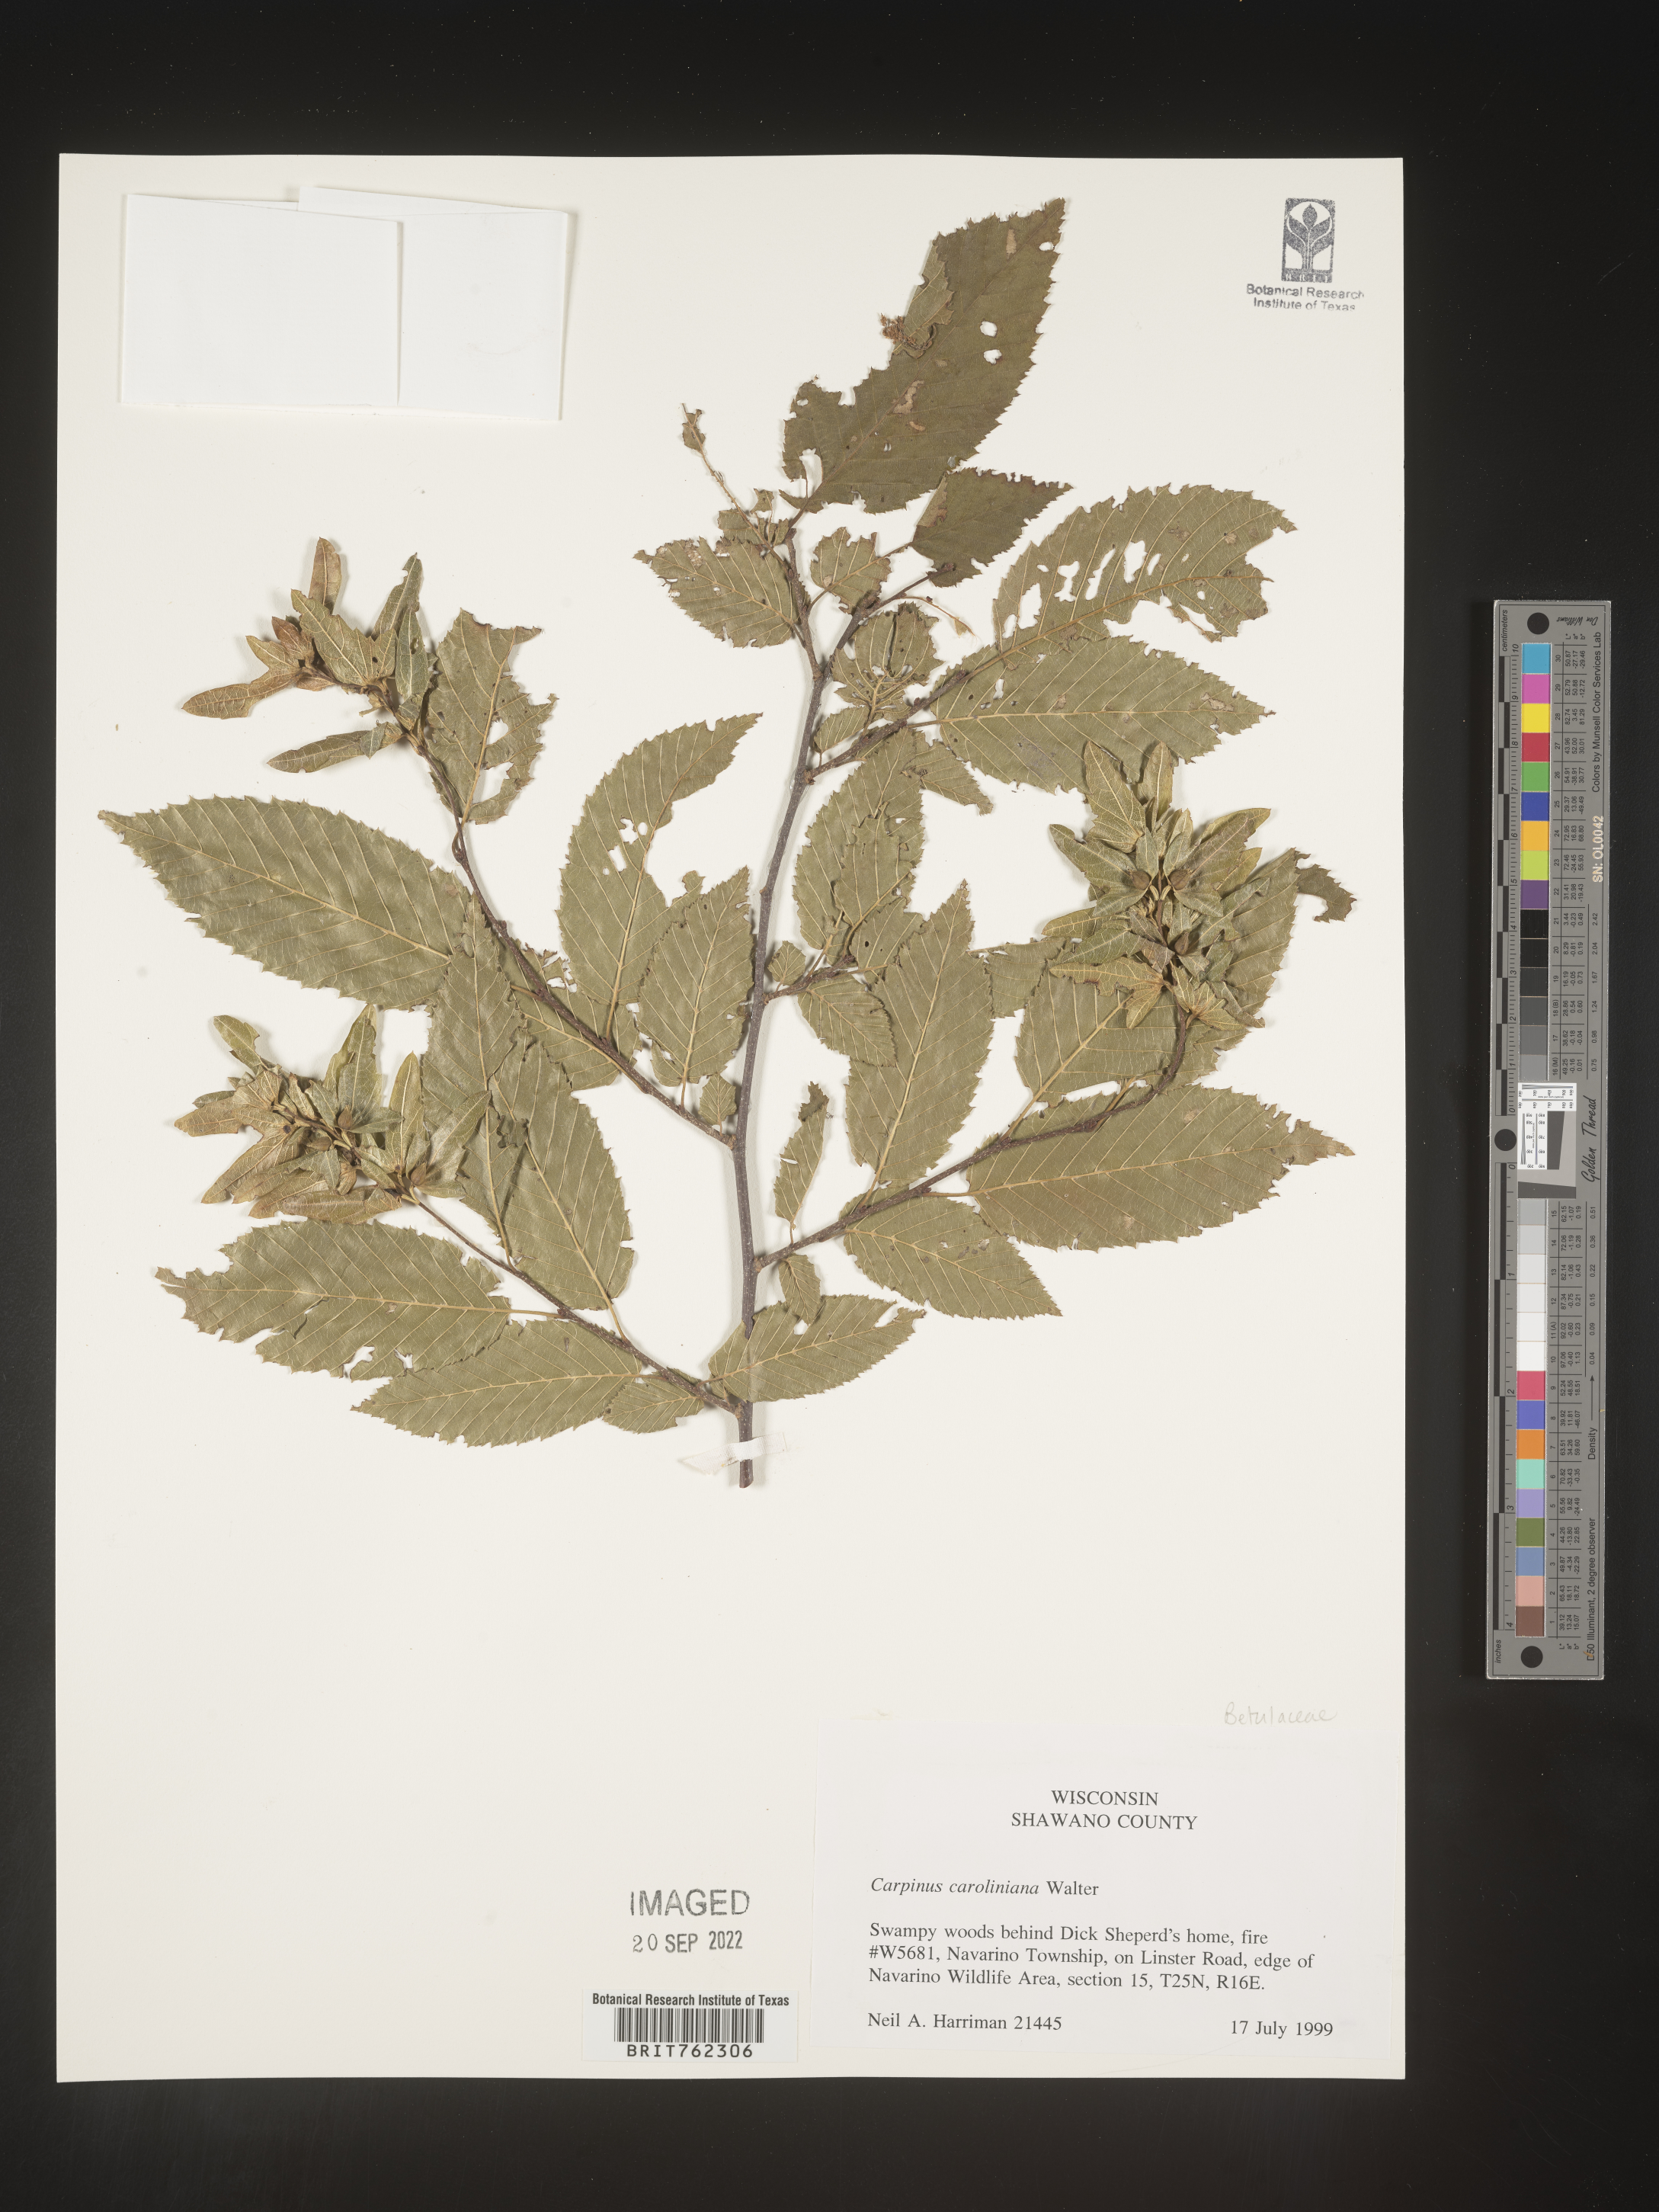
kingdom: Plantae
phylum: Tracheophyta
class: Magnoliopsida
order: Fagales
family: Betulaceae
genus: Carpinus
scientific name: Carpinus caroliniana
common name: American hornbeam
